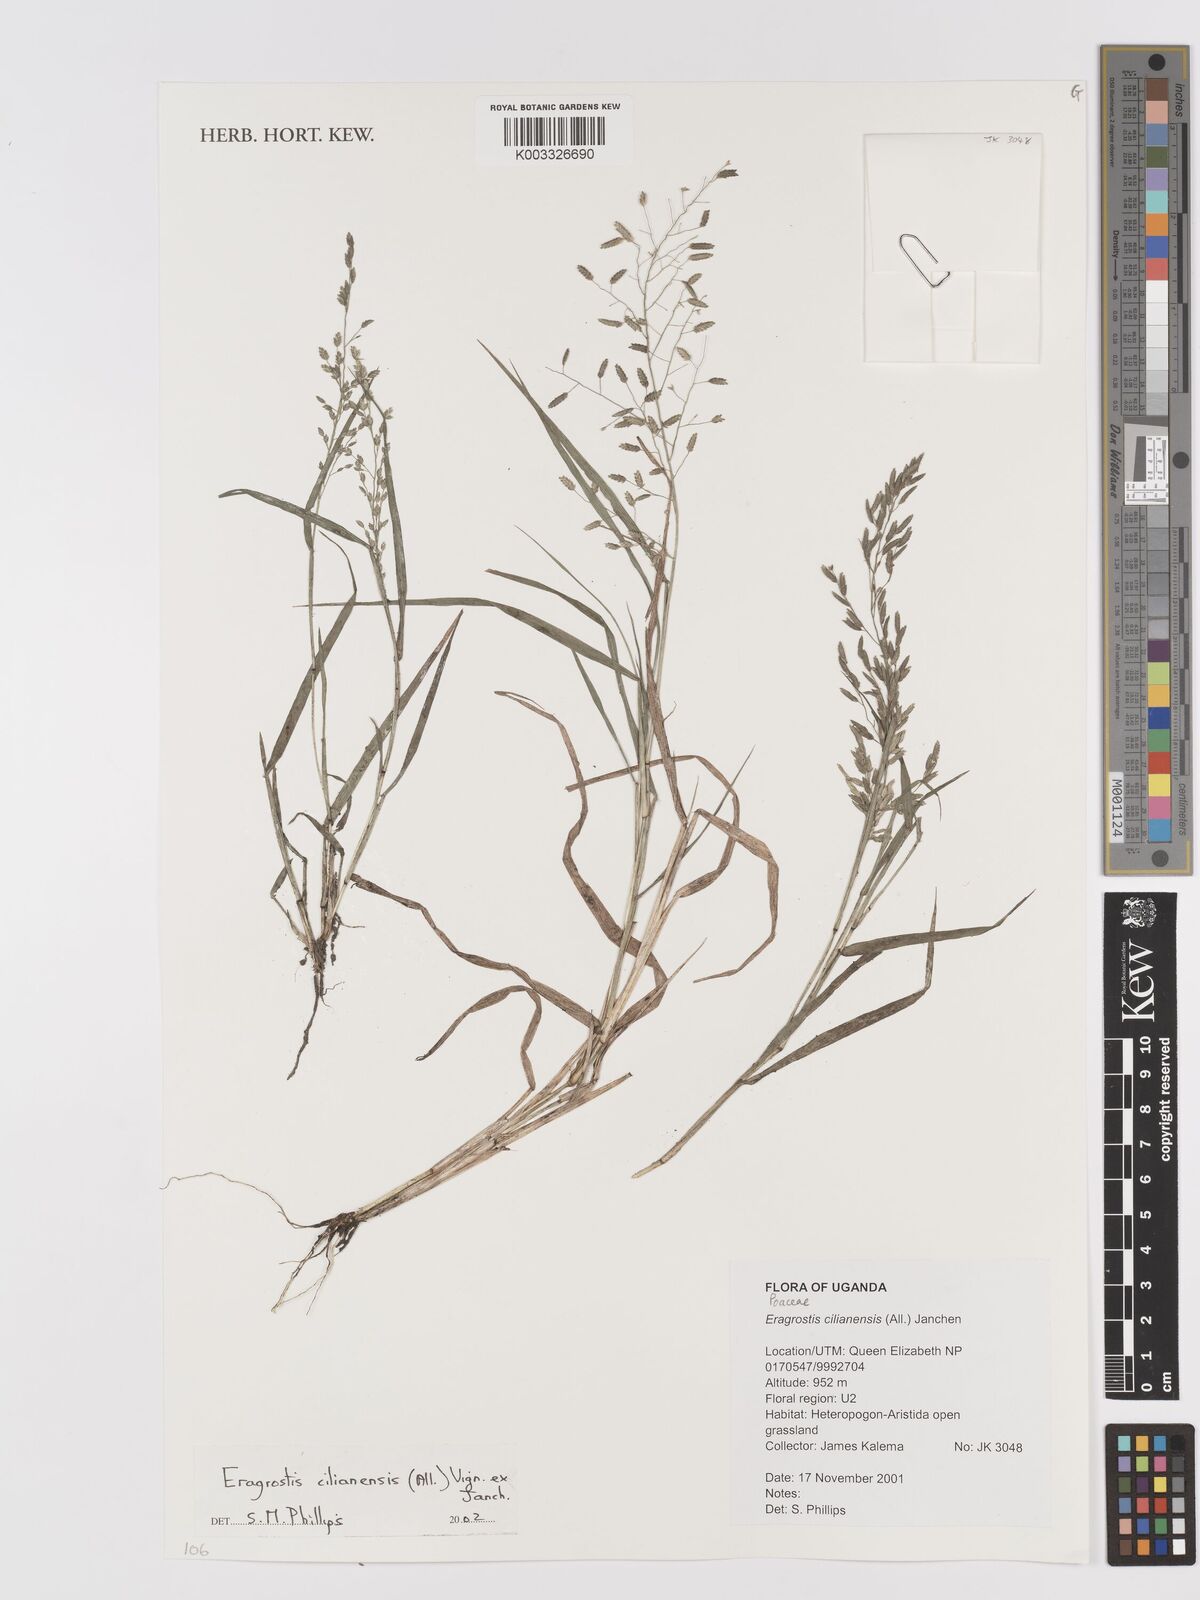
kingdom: Plantae
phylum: Tracheophyta
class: Liliopsida
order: Poales
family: Poaceae
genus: Eragrostis
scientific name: Eragrostis cilianensis
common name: Stinkgrass
